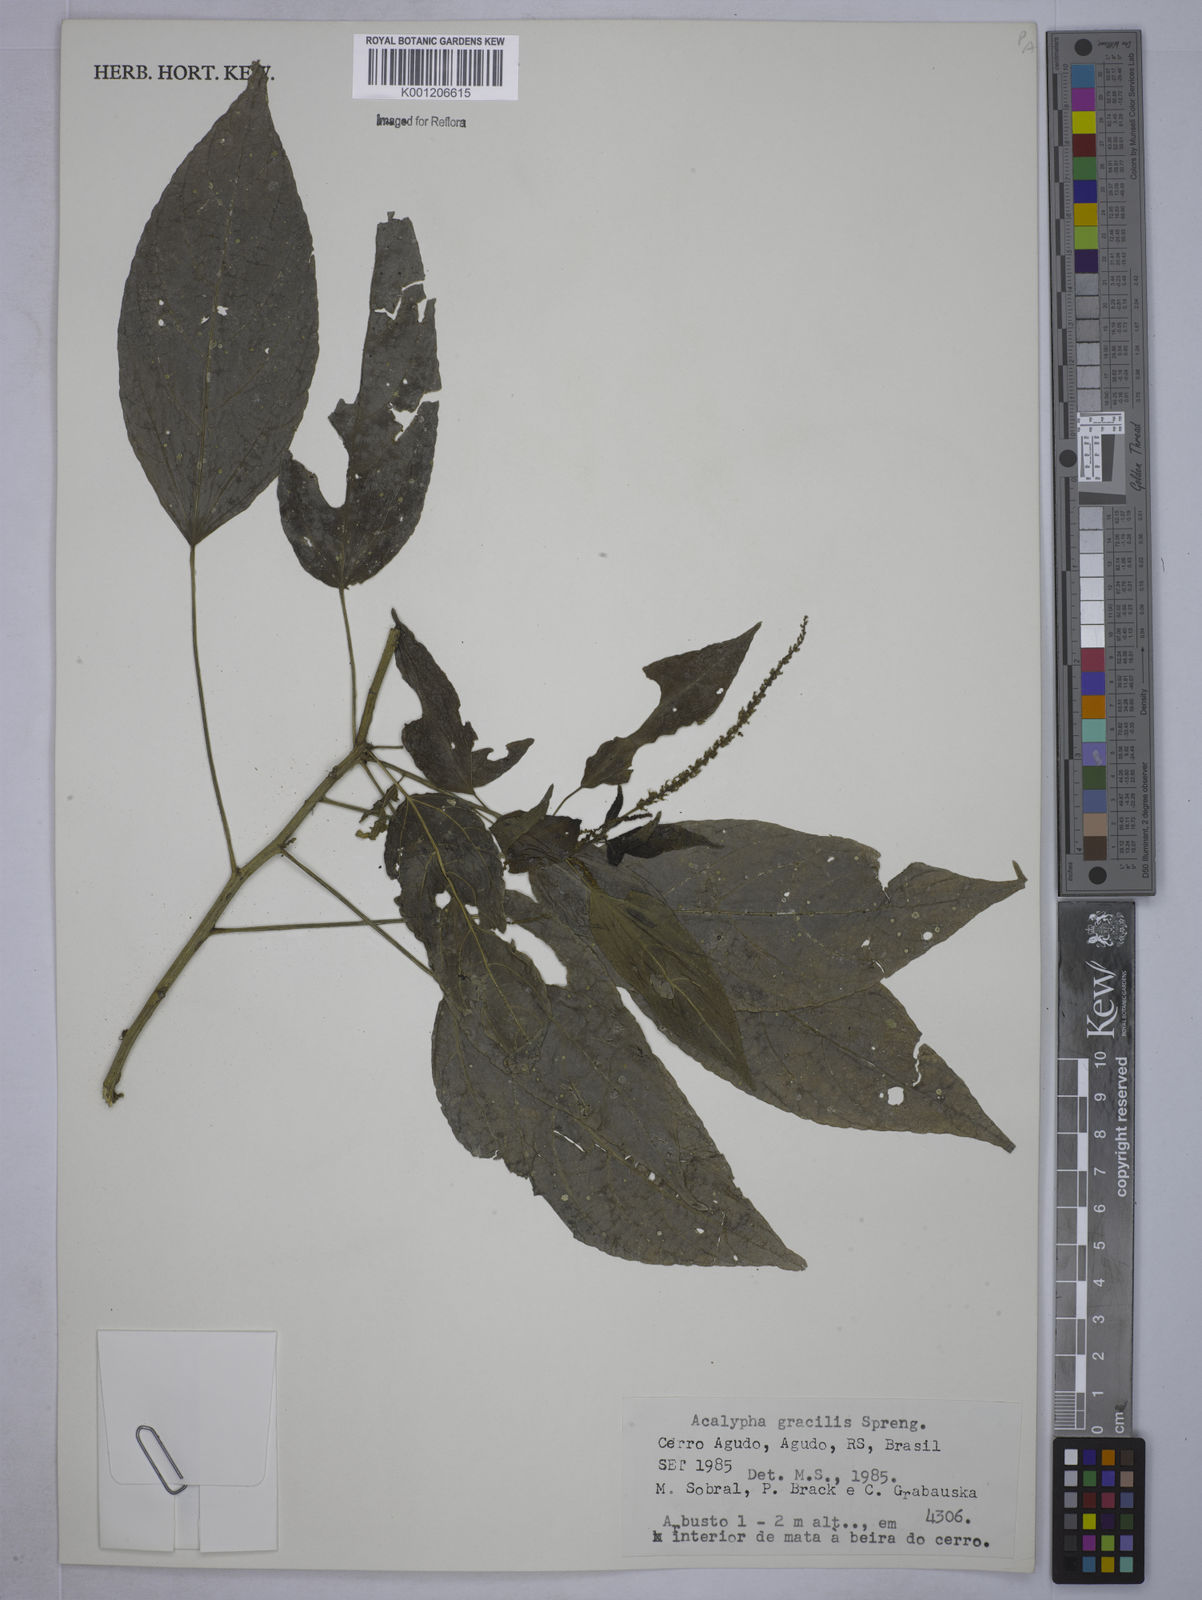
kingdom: Plantae
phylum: Tracheophyta
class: Magnoliopsida
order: Malpighiales
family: Euphorbiaceae
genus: Acalypha
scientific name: Acalypha gracilis
